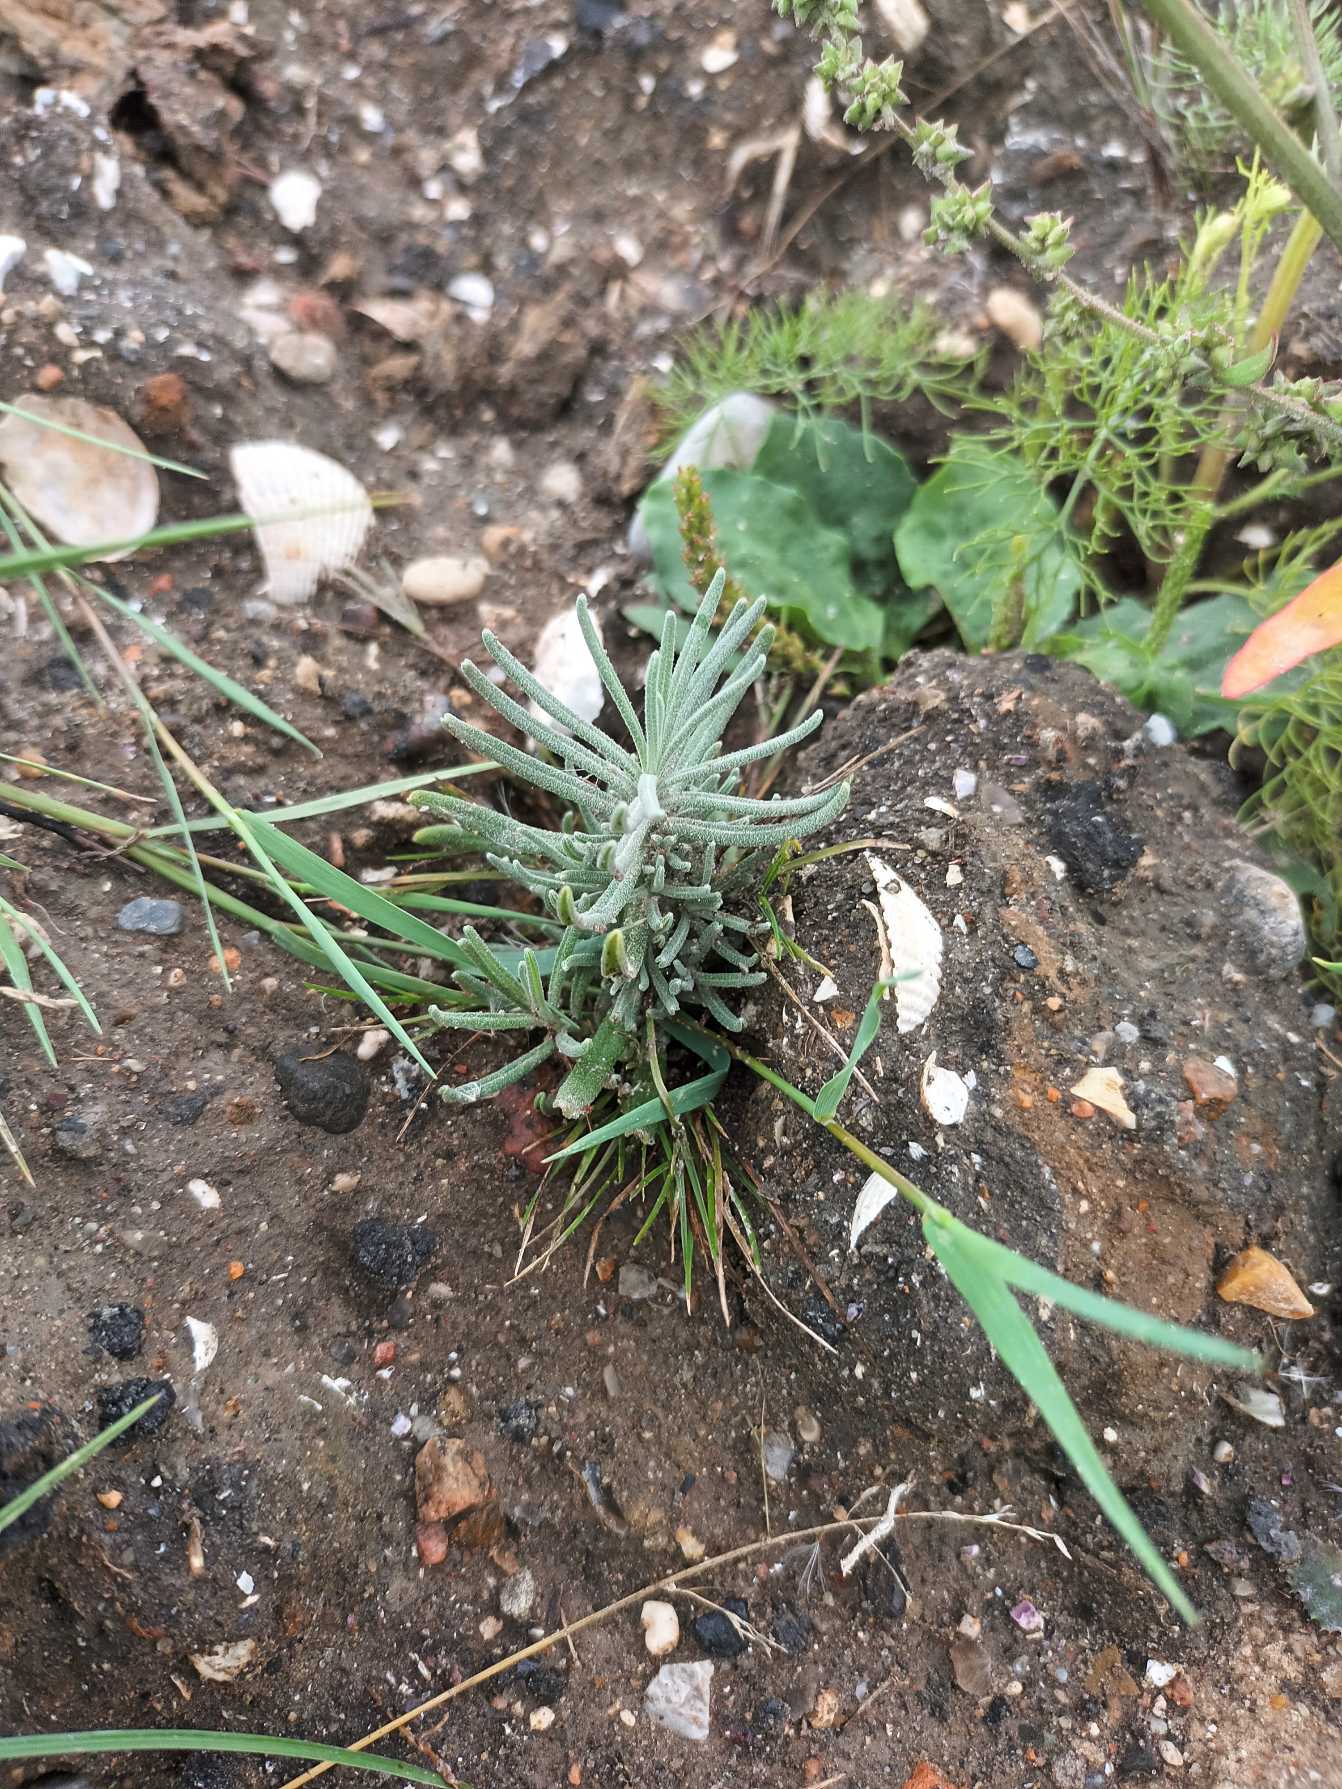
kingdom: Plantae
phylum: Tracheophyta
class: Magnoliopsida
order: Lamiales
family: Lamiaceae
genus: Lavandula
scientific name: Lavandula angustifolia
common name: Ægte lavendel
